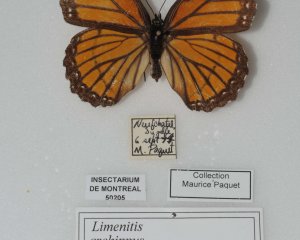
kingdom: Animalia
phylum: Arthropoda
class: Insecta
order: Lepidoptera
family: Nymphalidae
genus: Limenitis
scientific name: Limenitis archippus
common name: Viceroy
